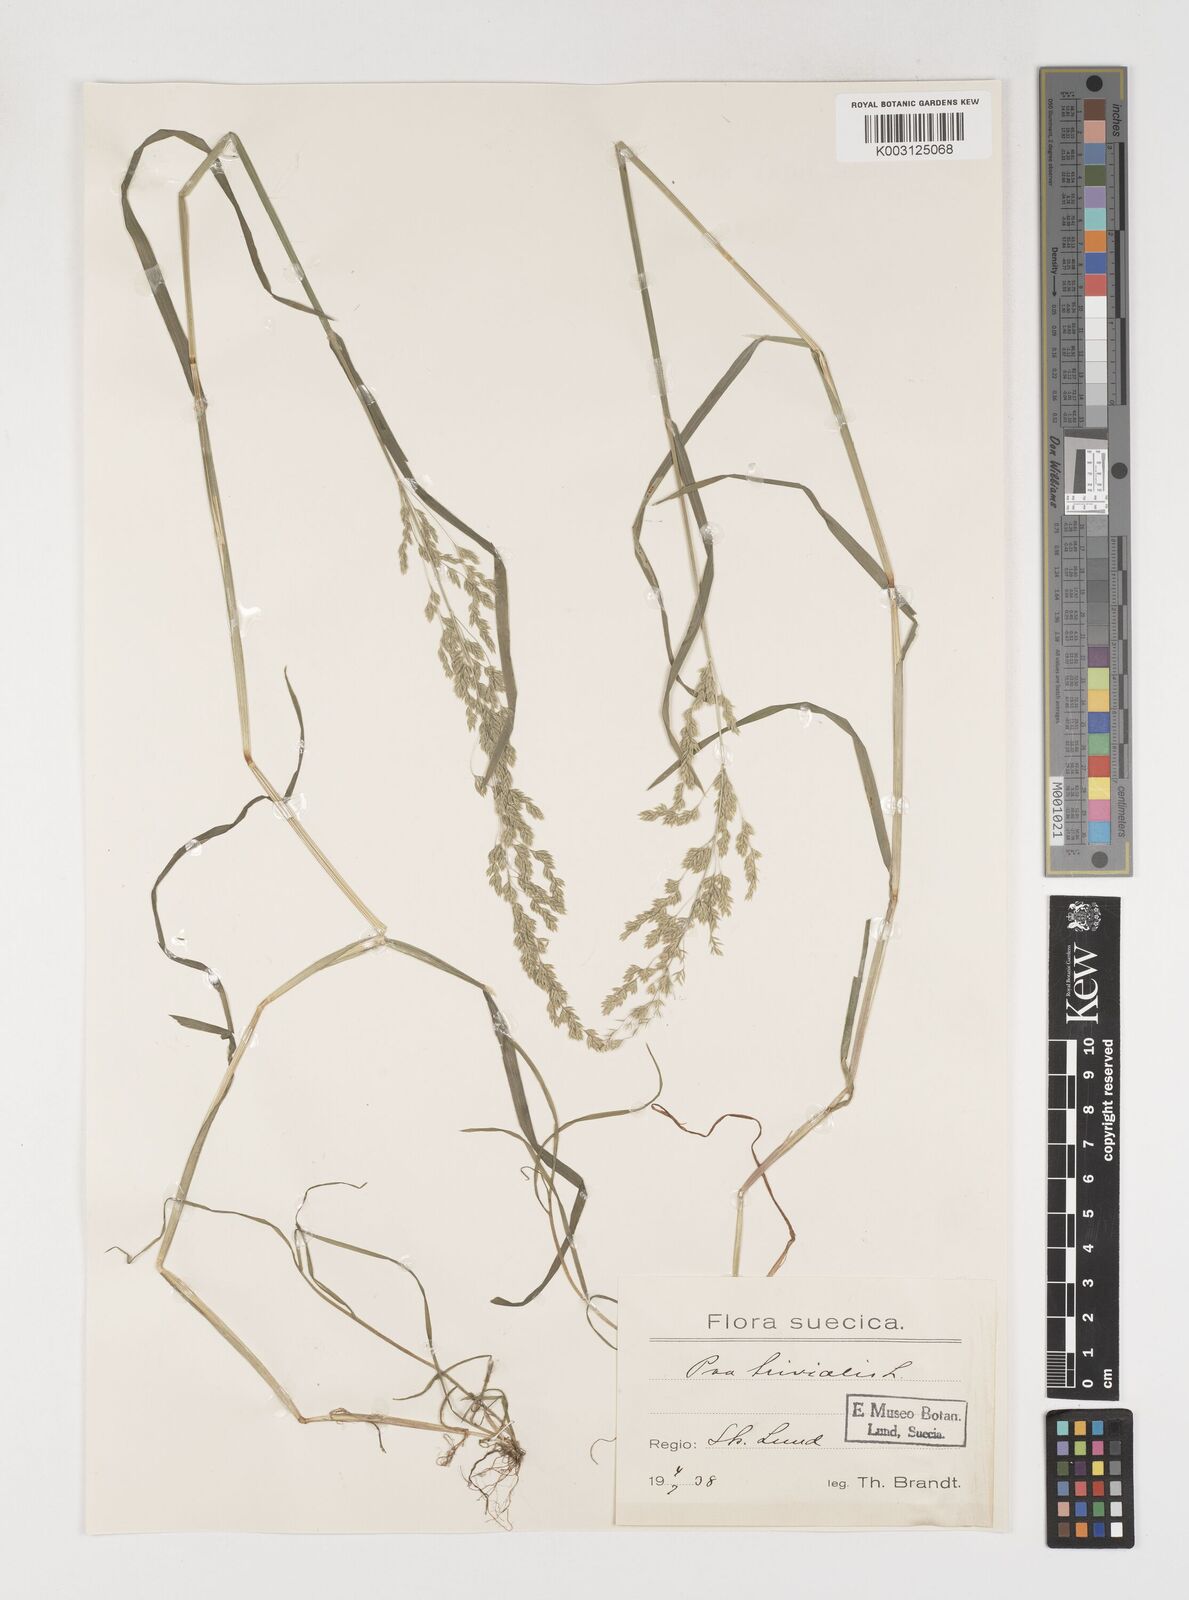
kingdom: Plantae
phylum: Tracheophyta
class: Liliopsida
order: Poales
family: Poaceae
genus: Poa
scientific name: Poa trivialis
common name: Rough bluegrass
